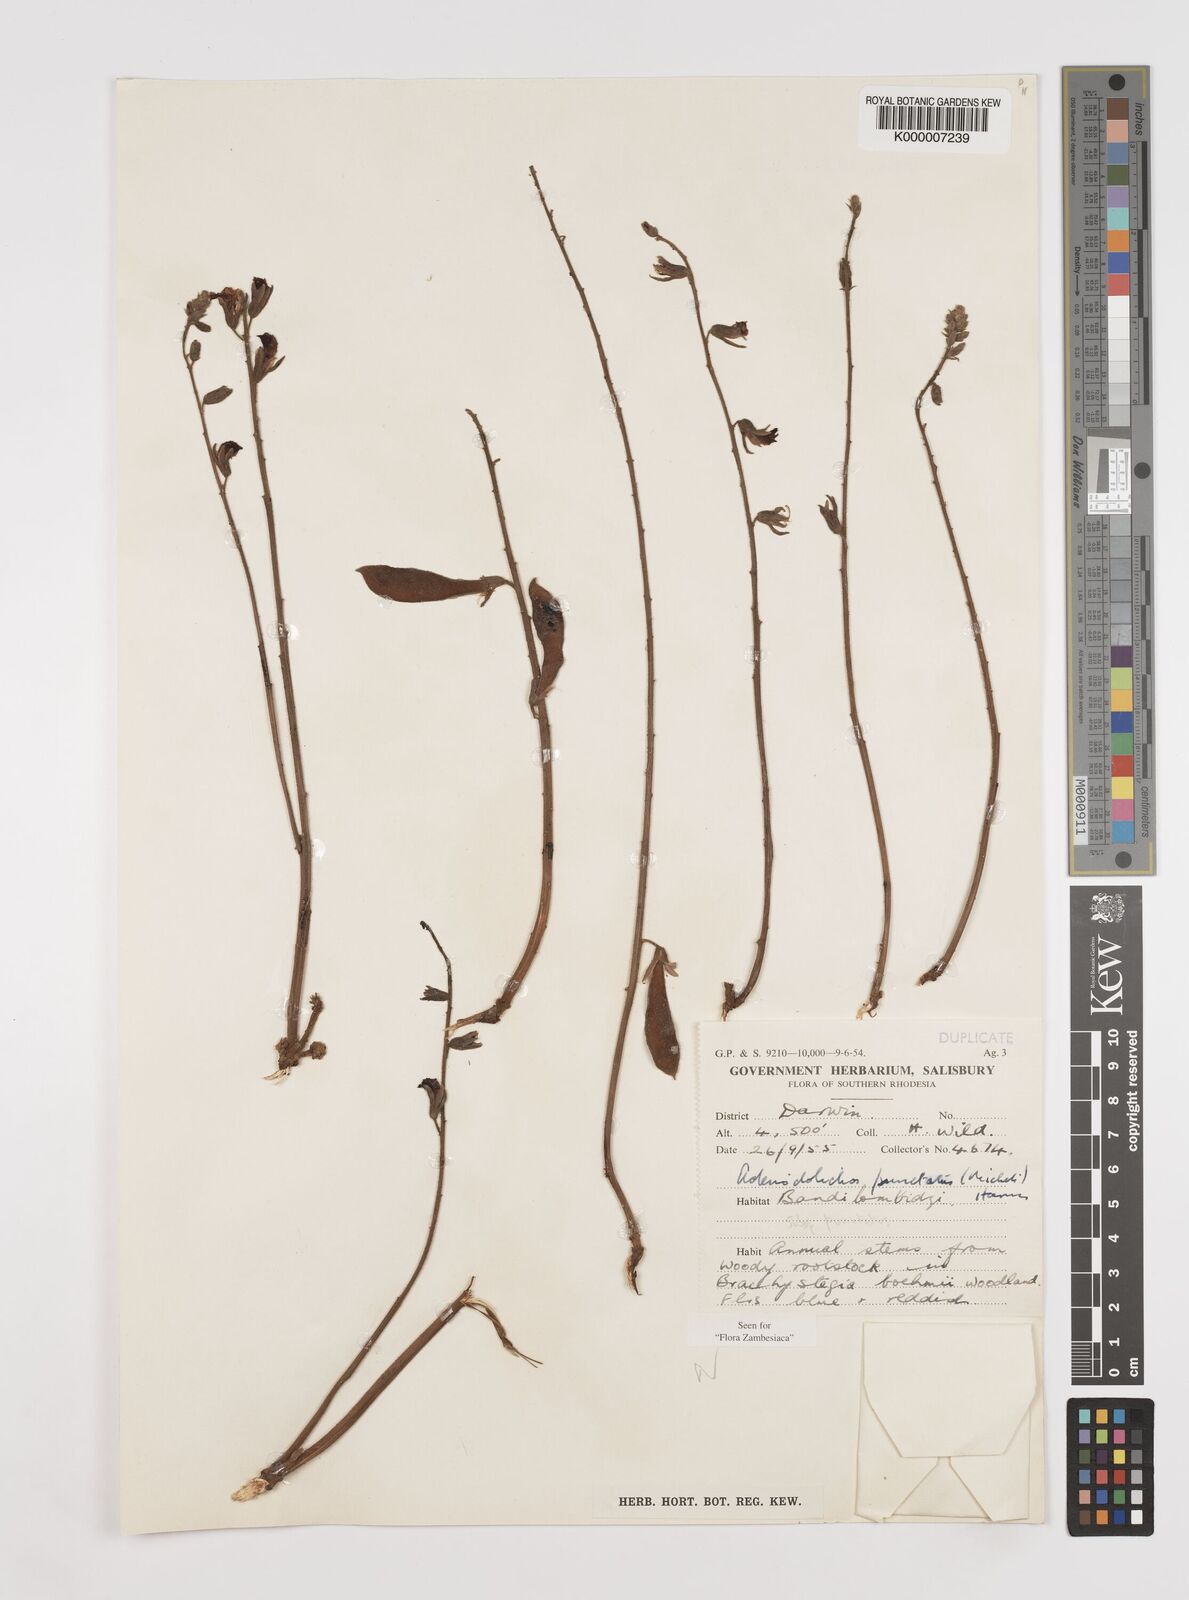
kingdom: Plantae
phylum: Tracheophyta
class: Magnoliopsida
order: Fabales
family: Fabaceae
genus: Adenodolichos
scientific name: Adenodolichos punctatus
